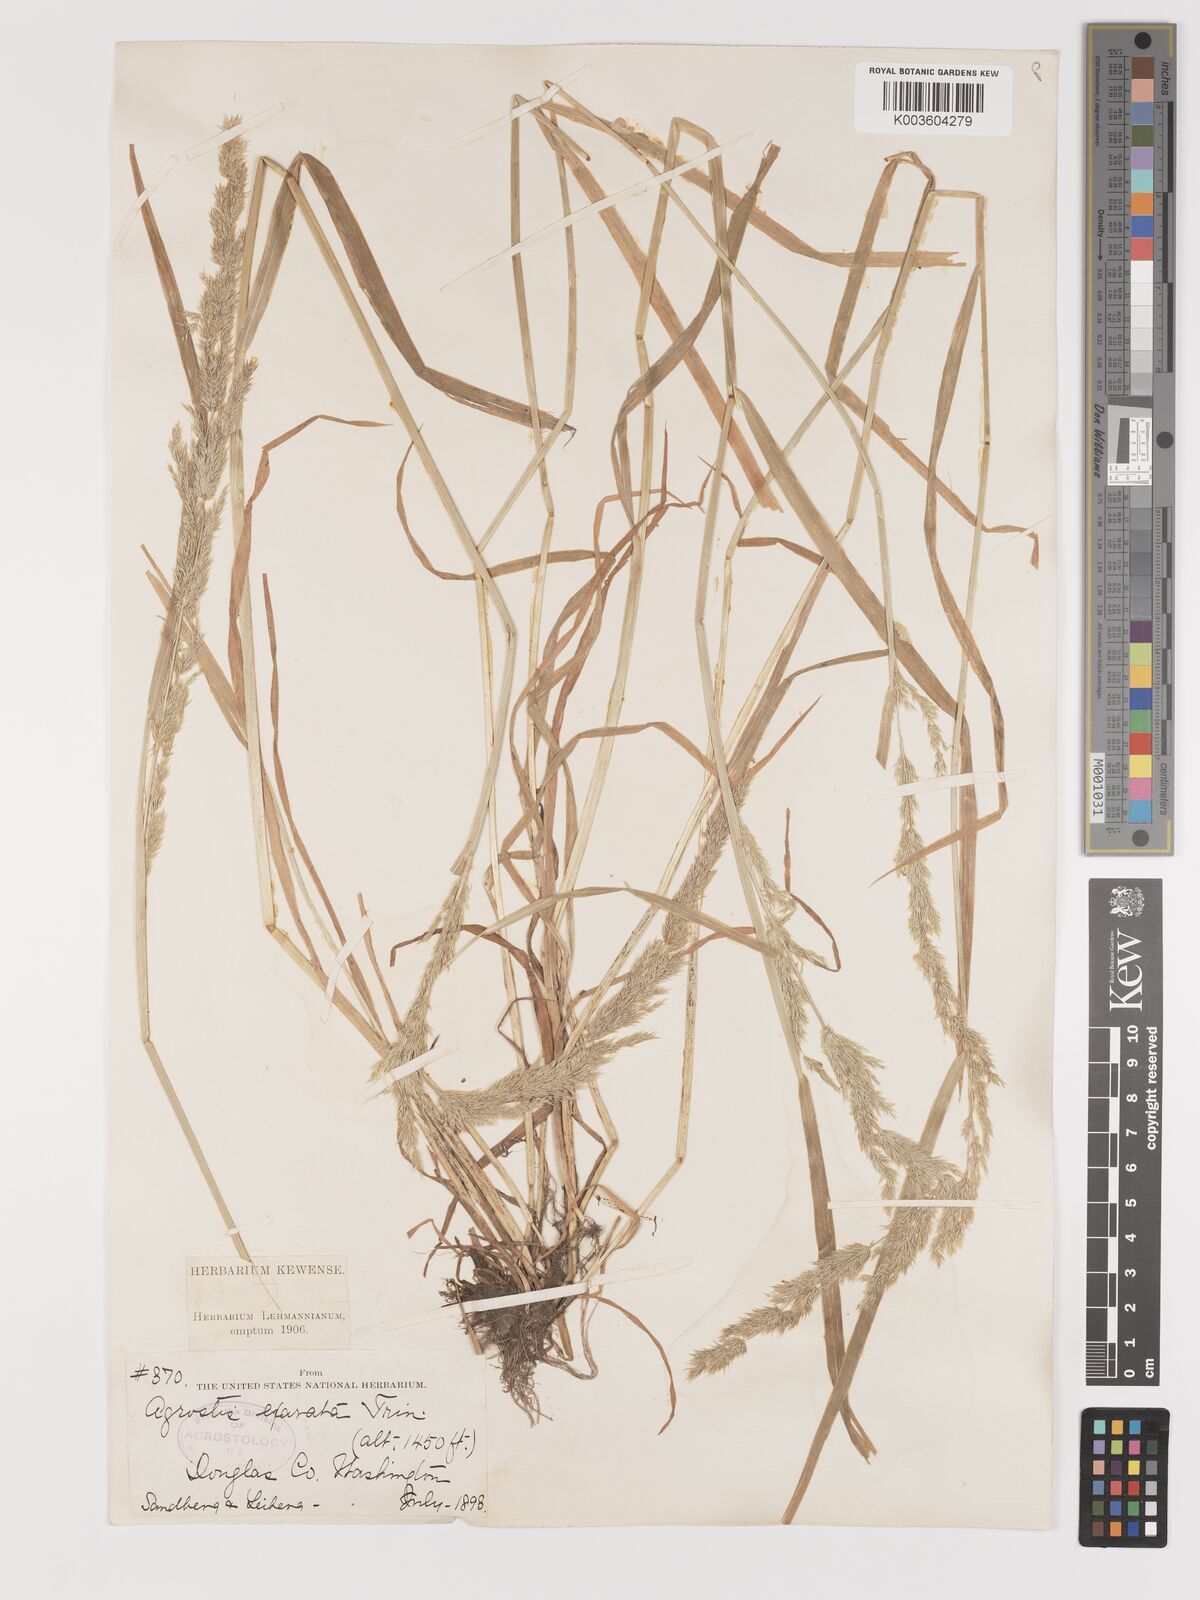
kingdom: Plantae
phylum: Tracheophyta
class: Liliopsida
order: Poales
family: Poaceae
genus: Agrostis
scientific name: Agrostis exarata
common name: Spike bent
